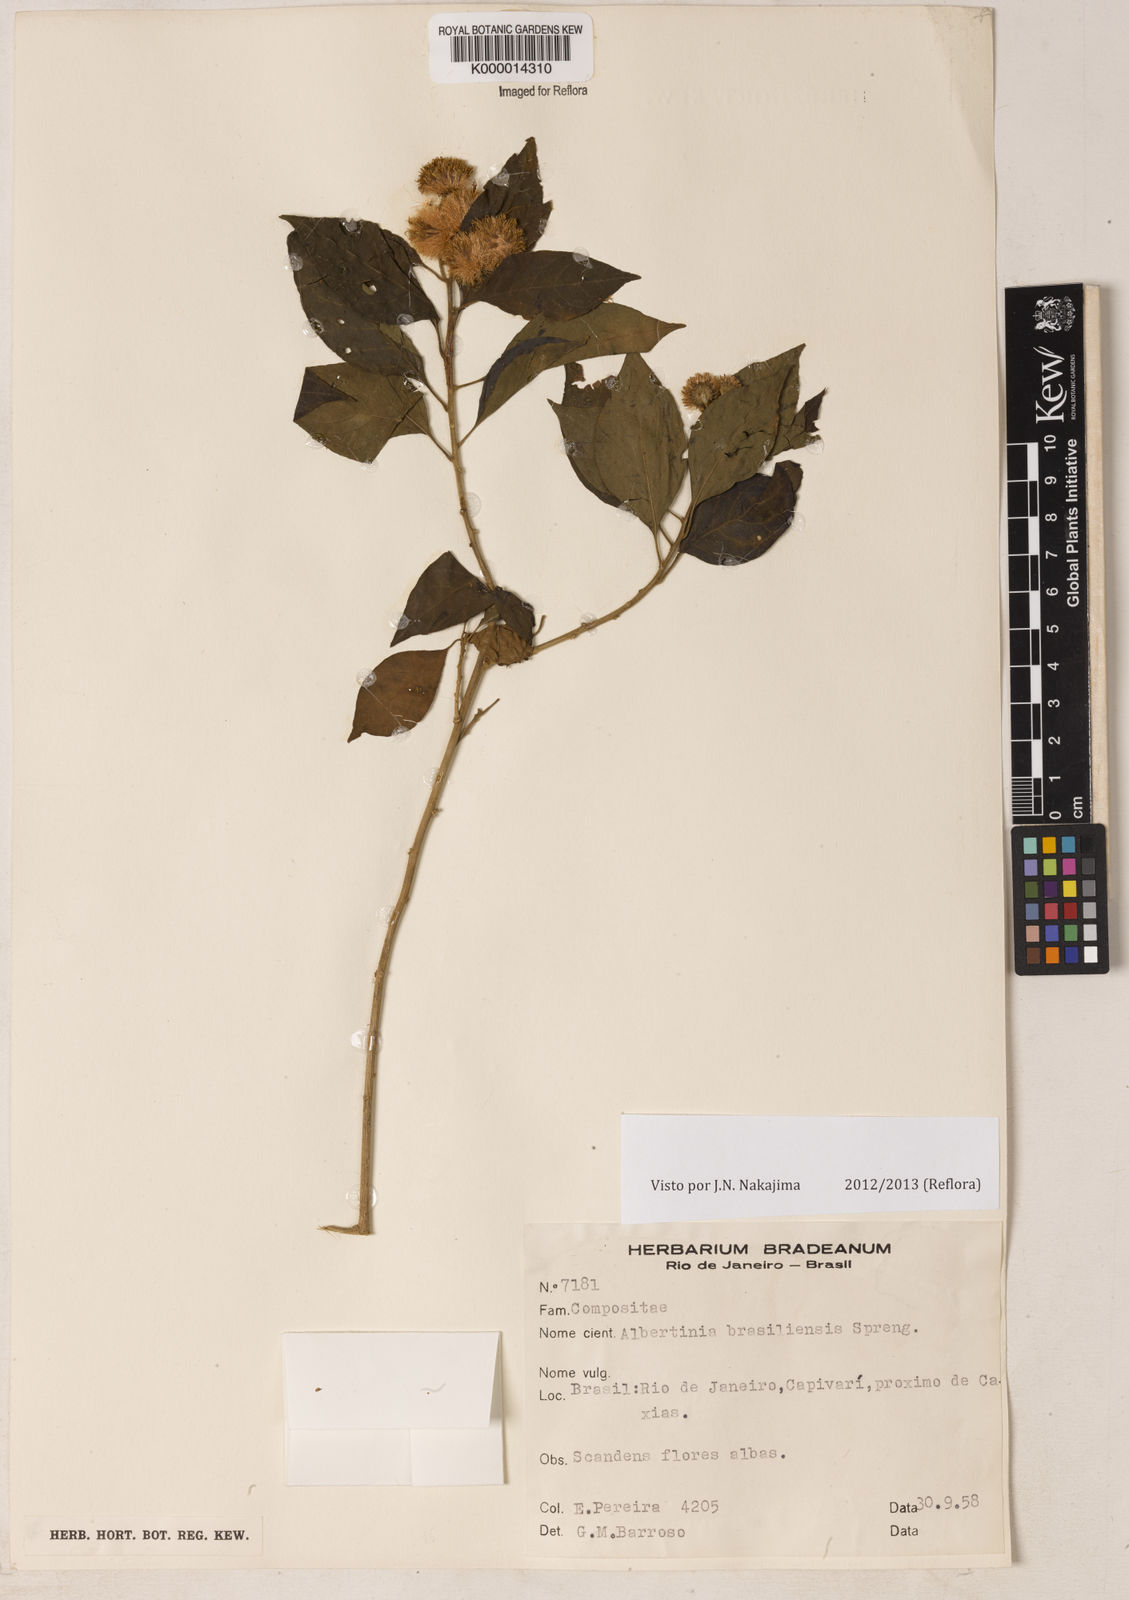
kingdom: Plantae
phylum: Tracheophyta
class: Magnoliopsida
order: Myrtales
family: Myrtaceae
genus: Eugenia
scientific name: Eugenia thwaitesii
